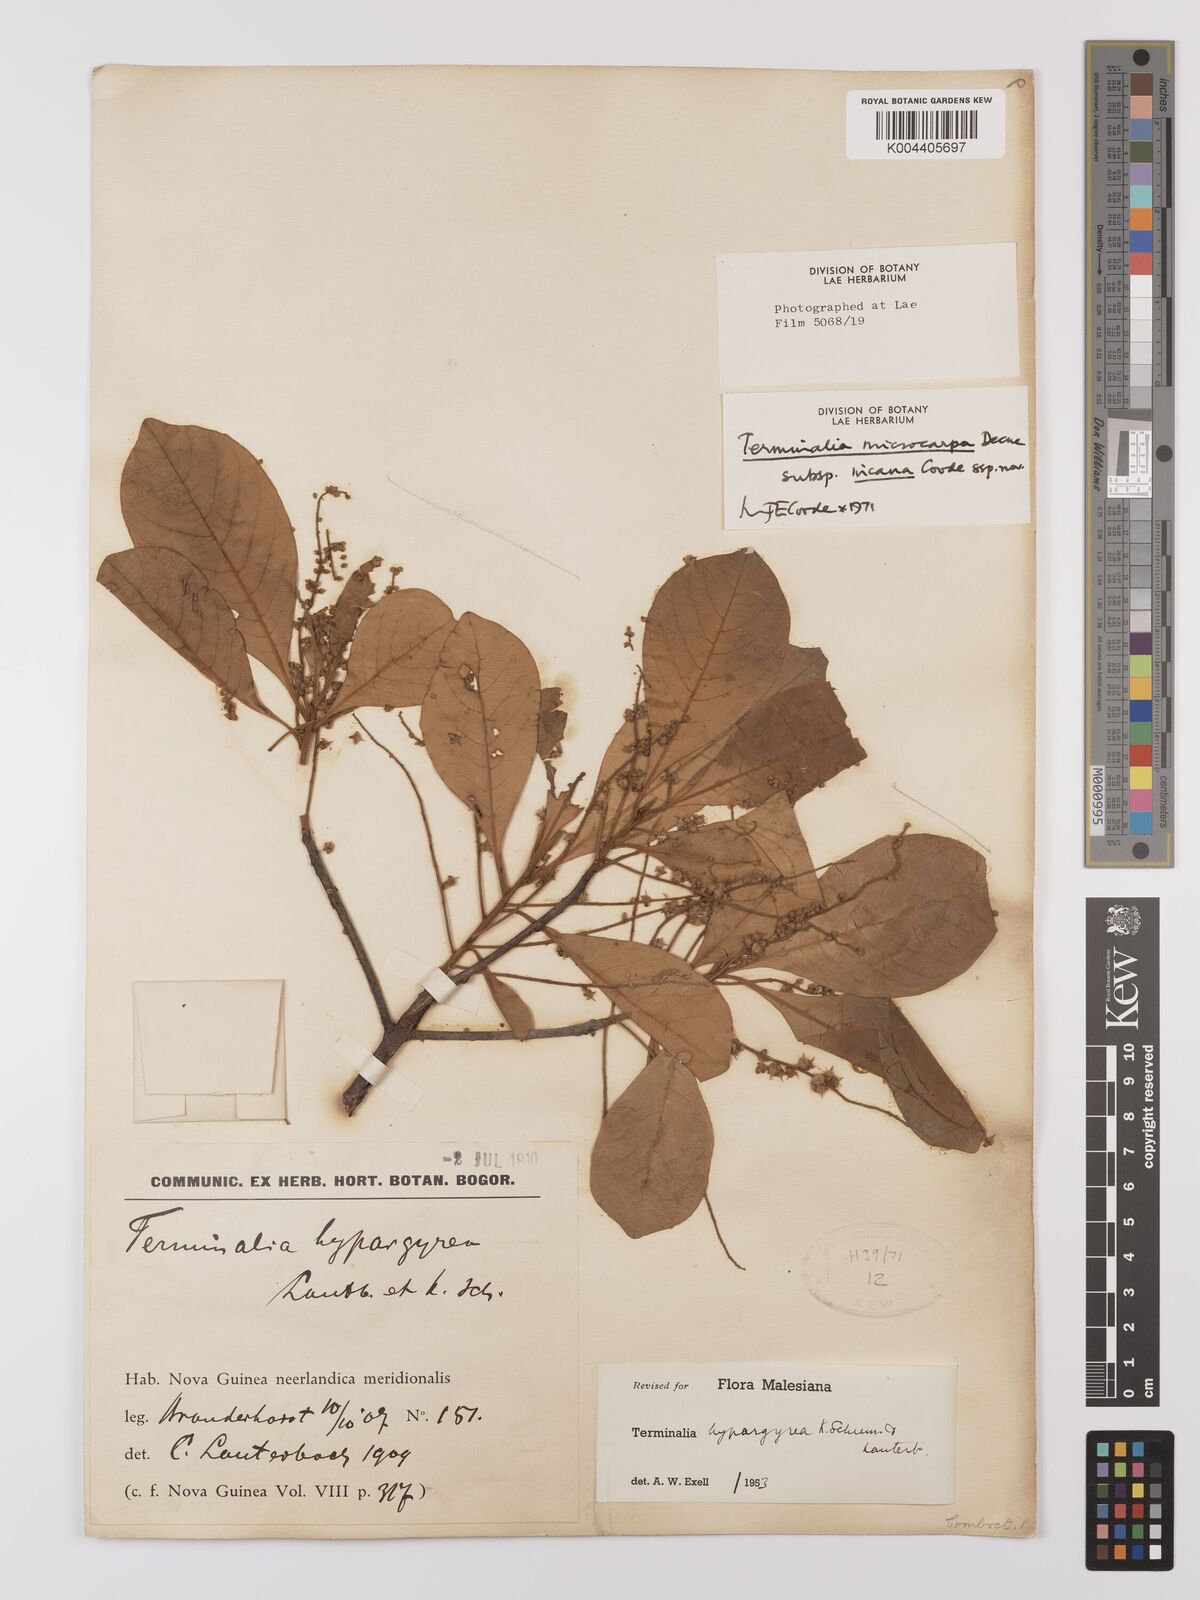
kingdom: Plantae
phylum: Tracheophyta
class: Magnoliopsida
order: Myrtales
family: Combretaceae
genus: Terminalia
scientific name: Terminalia microcarpa
